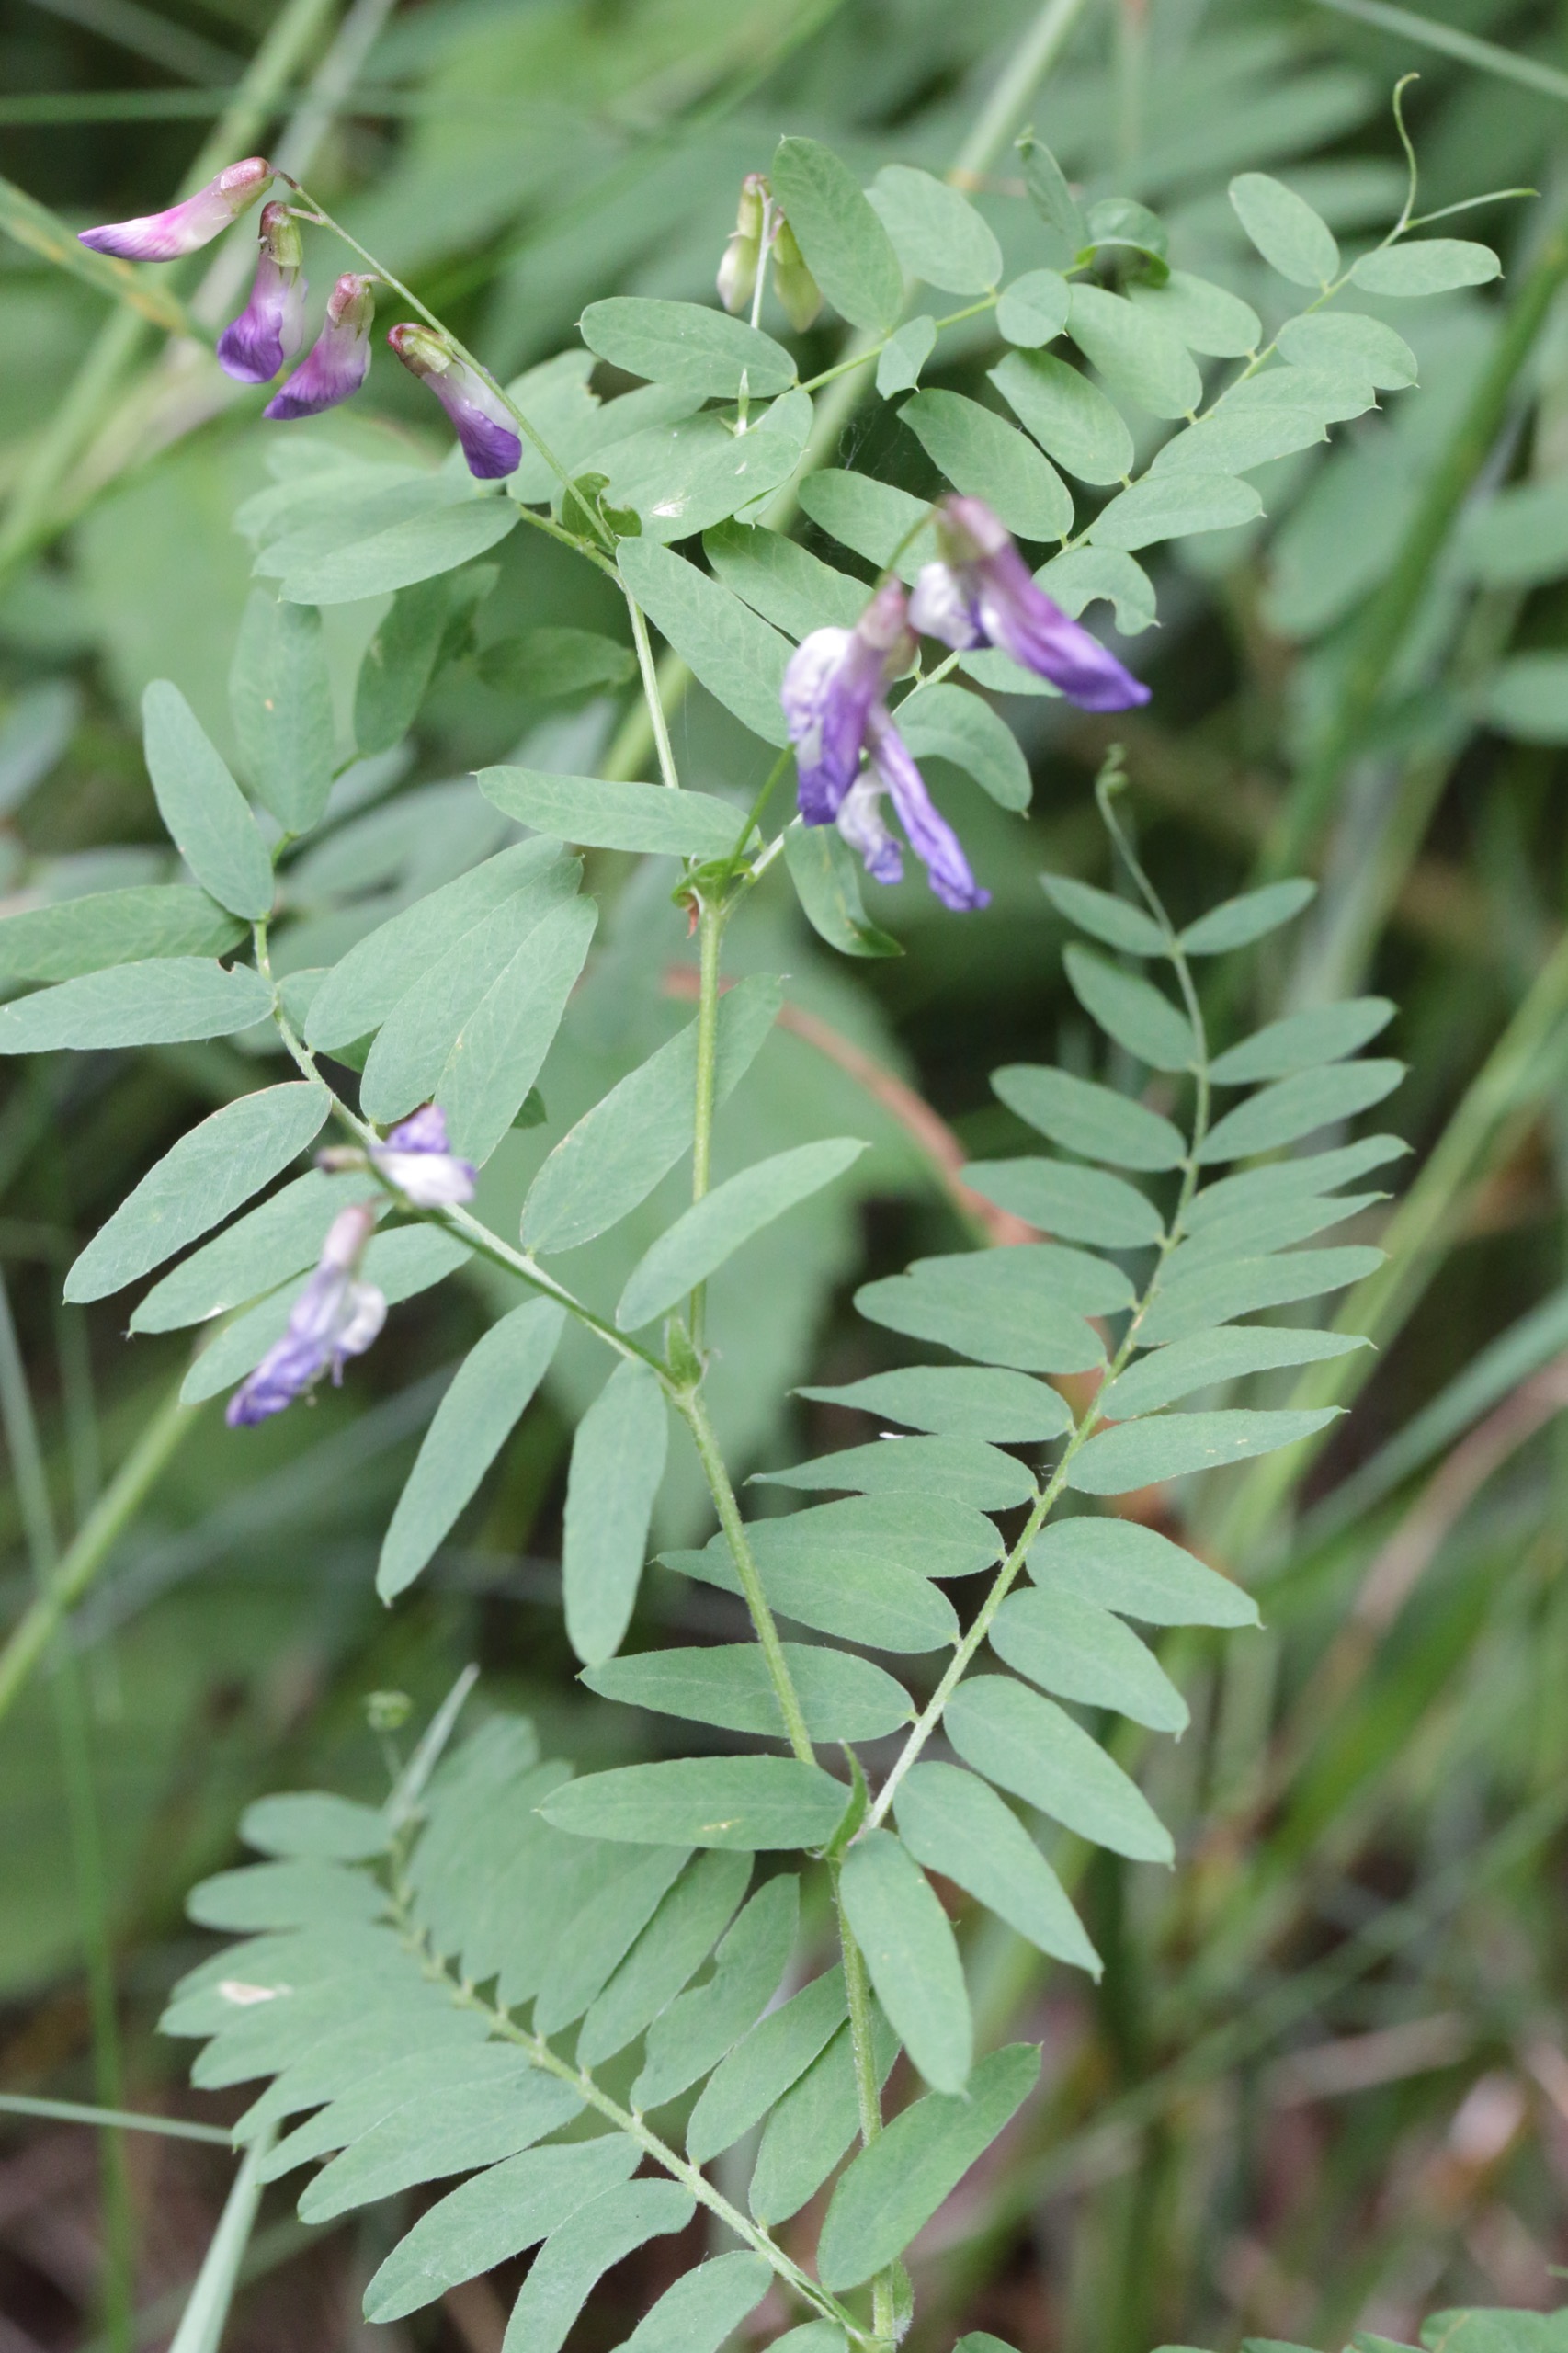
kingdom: Plantae
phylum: Tracheophyta
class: Magnoliopsida
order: Fabales
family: Fabaceae
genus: Vicia
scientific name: Vicia cassubica
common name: Kassubisk vikke
